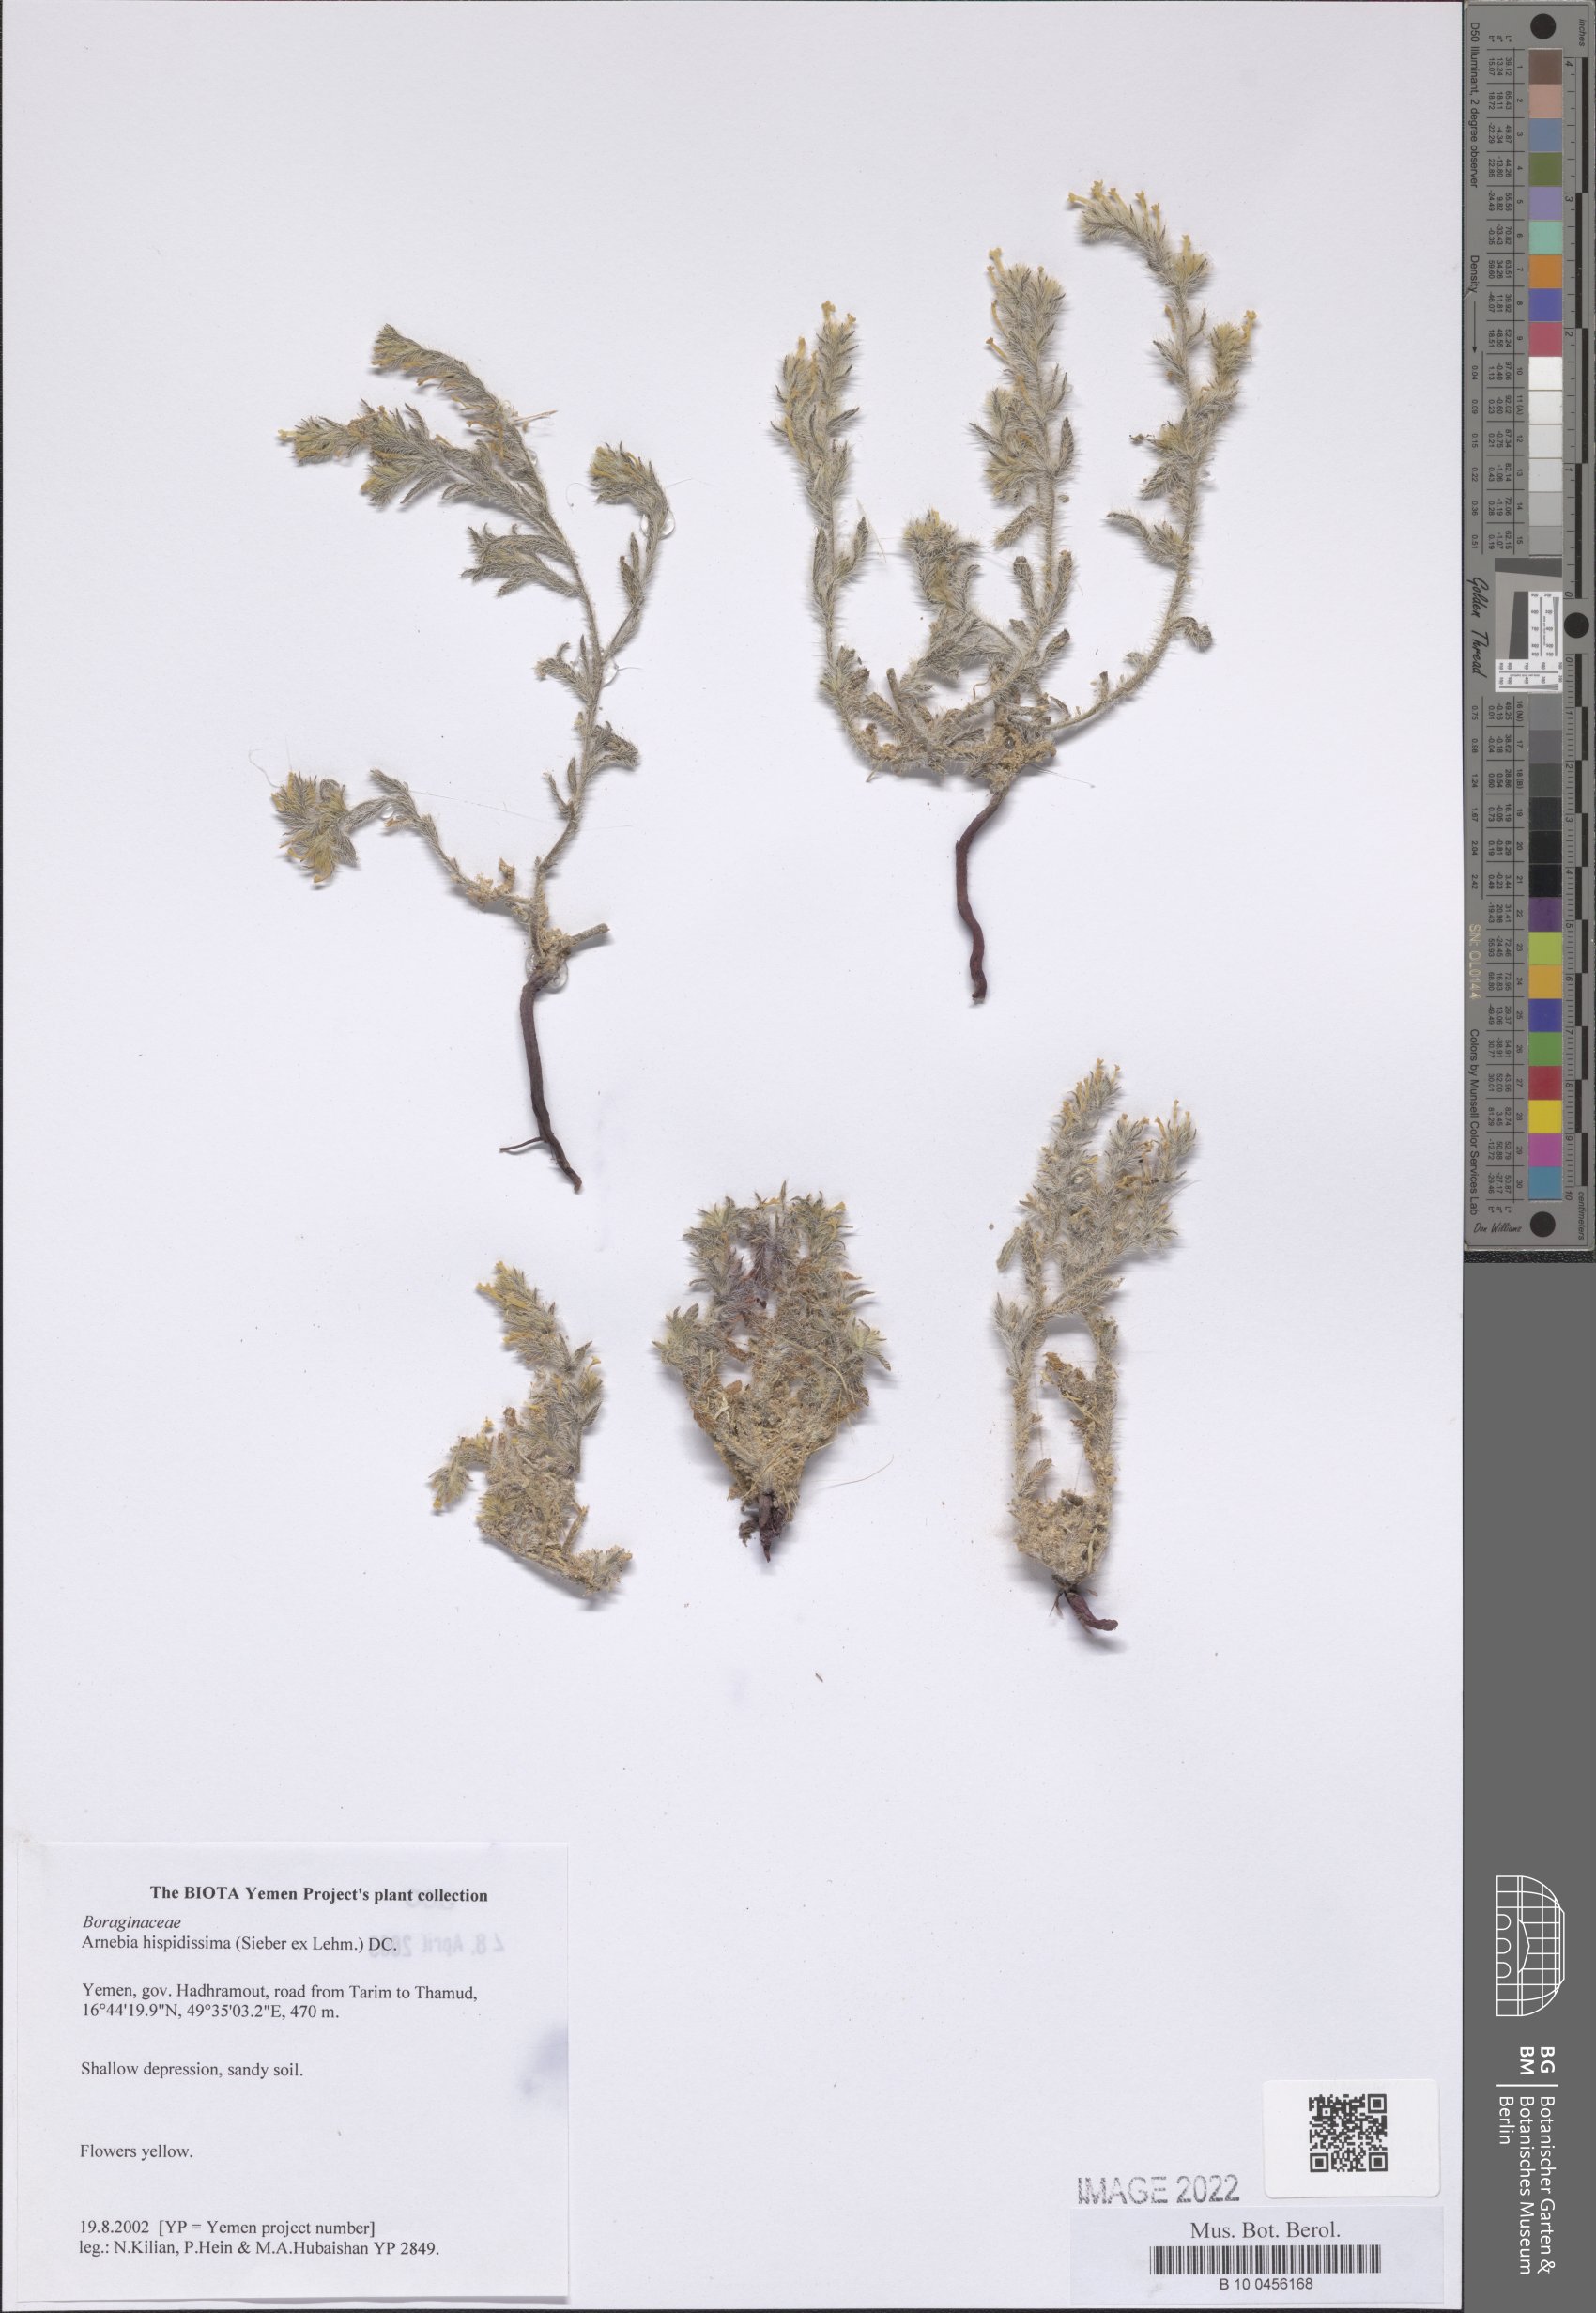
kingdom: Plantae
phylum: Tracheophyta
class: Magnoliopsida
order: Boraginales
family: Boraginaceae
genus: Arnebia
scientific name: Arnebia hispidissima
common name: Arabian-primrose
